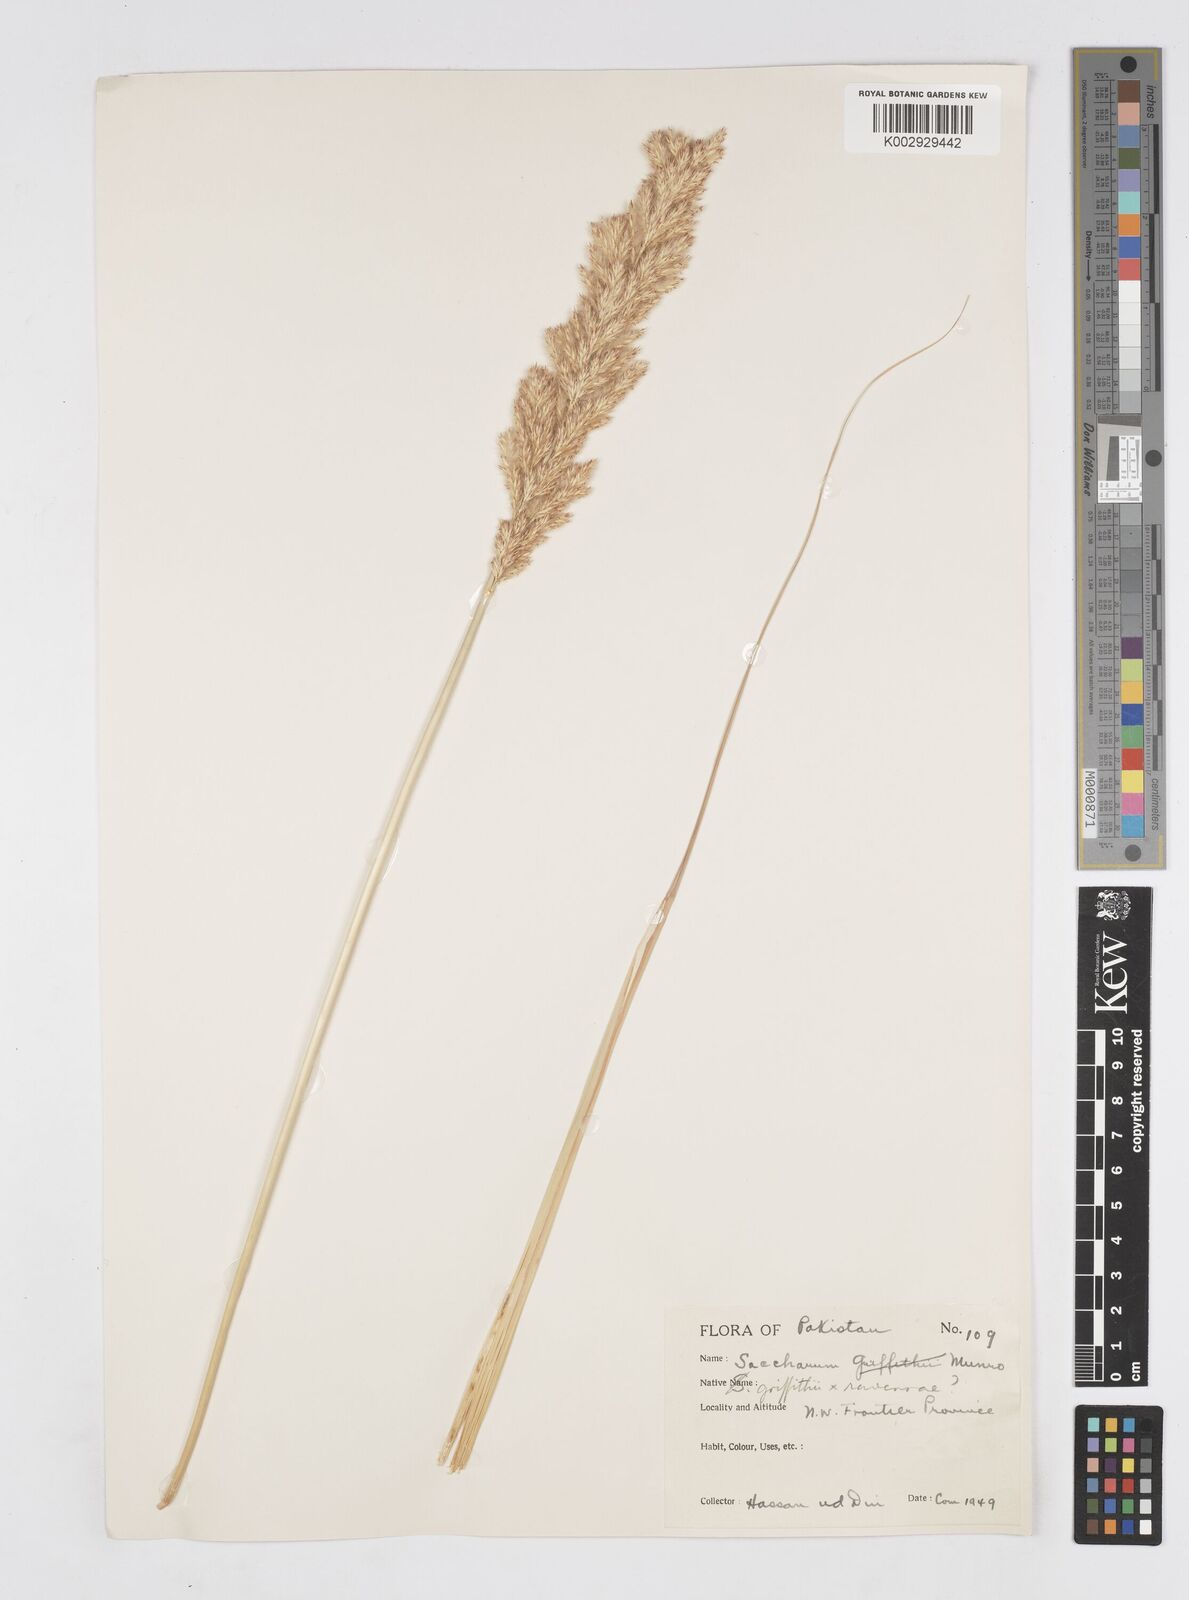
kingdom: Plantae
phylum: Tracheophyta
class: Liliopsida
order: Poales
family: Poaceae
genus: Saccharum
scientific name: Saccharum
